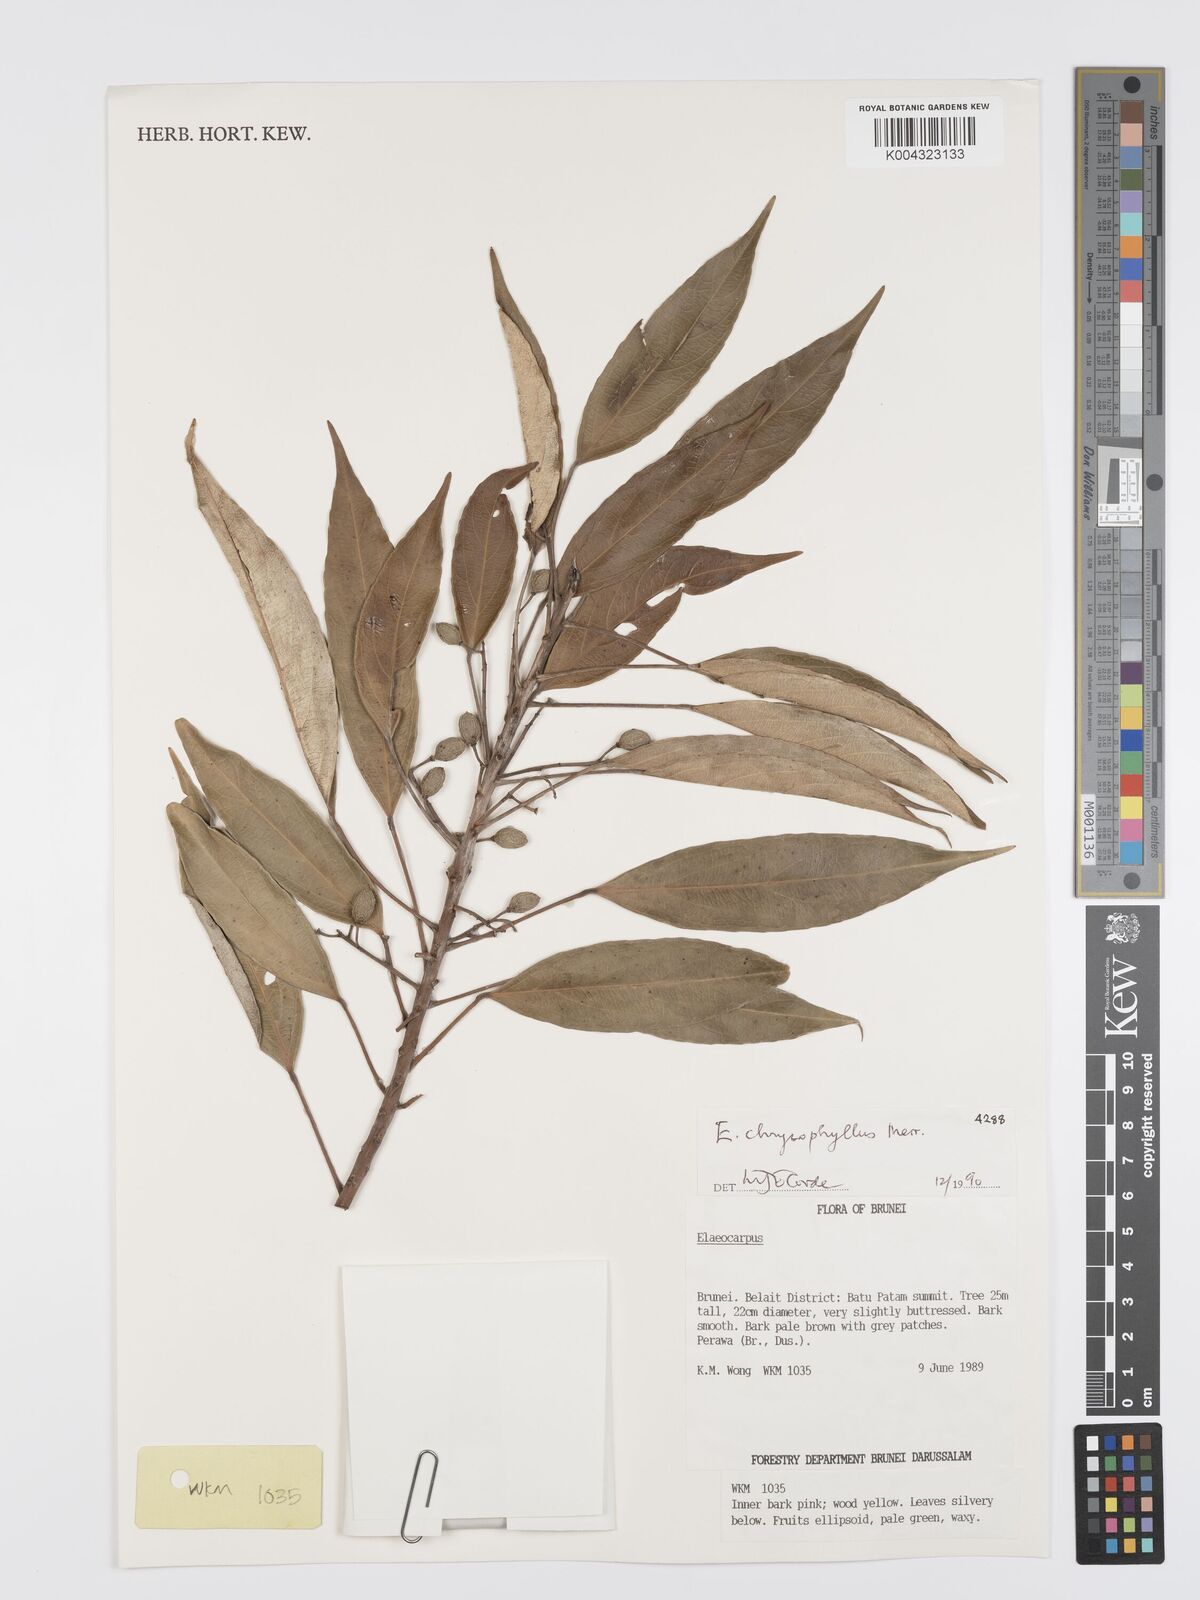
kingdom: Plantae
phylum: Tracheophyta
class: Magnoliopsida
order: Oxalidales
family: Elaeocarpaceae
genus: Elaeocarpus
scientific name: Elaeocarpus chrysophyllus
